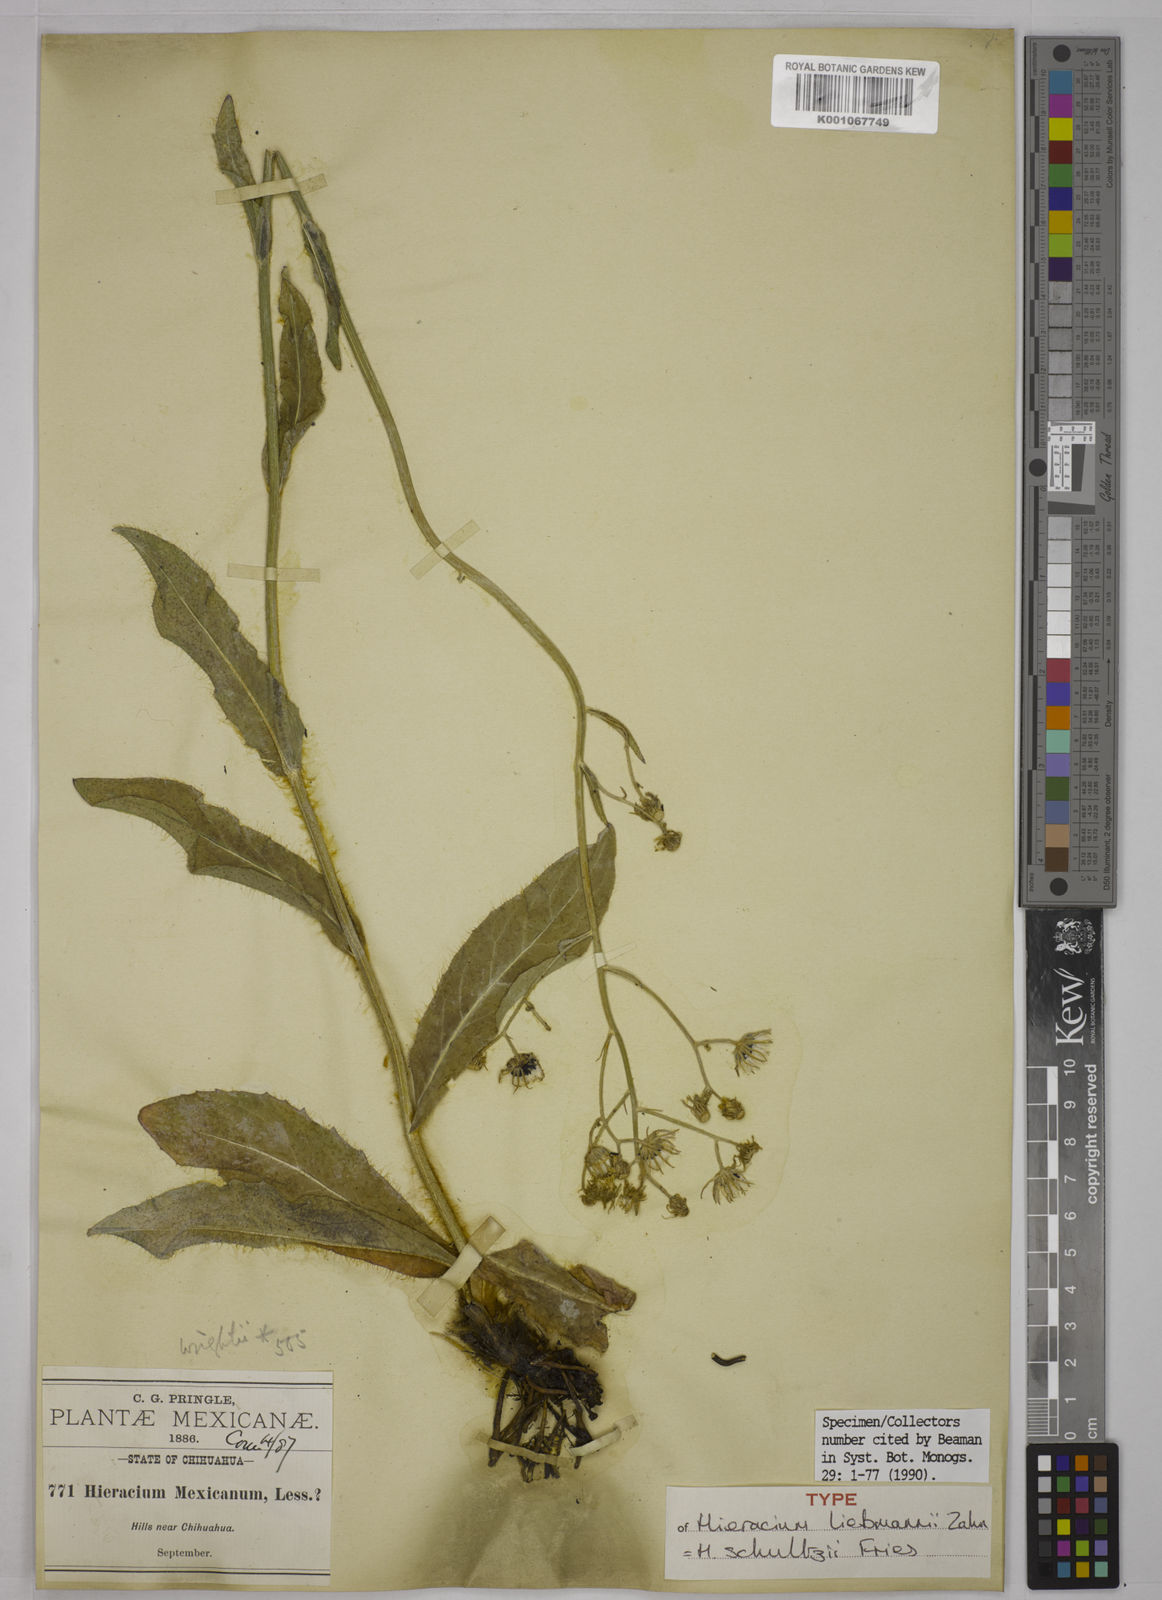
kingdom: Plantae
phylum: Tracheophyta
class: Magnoliopsida
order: Asterales
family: Asteraceae
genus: Hieracium
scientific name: Hieracium friesii
